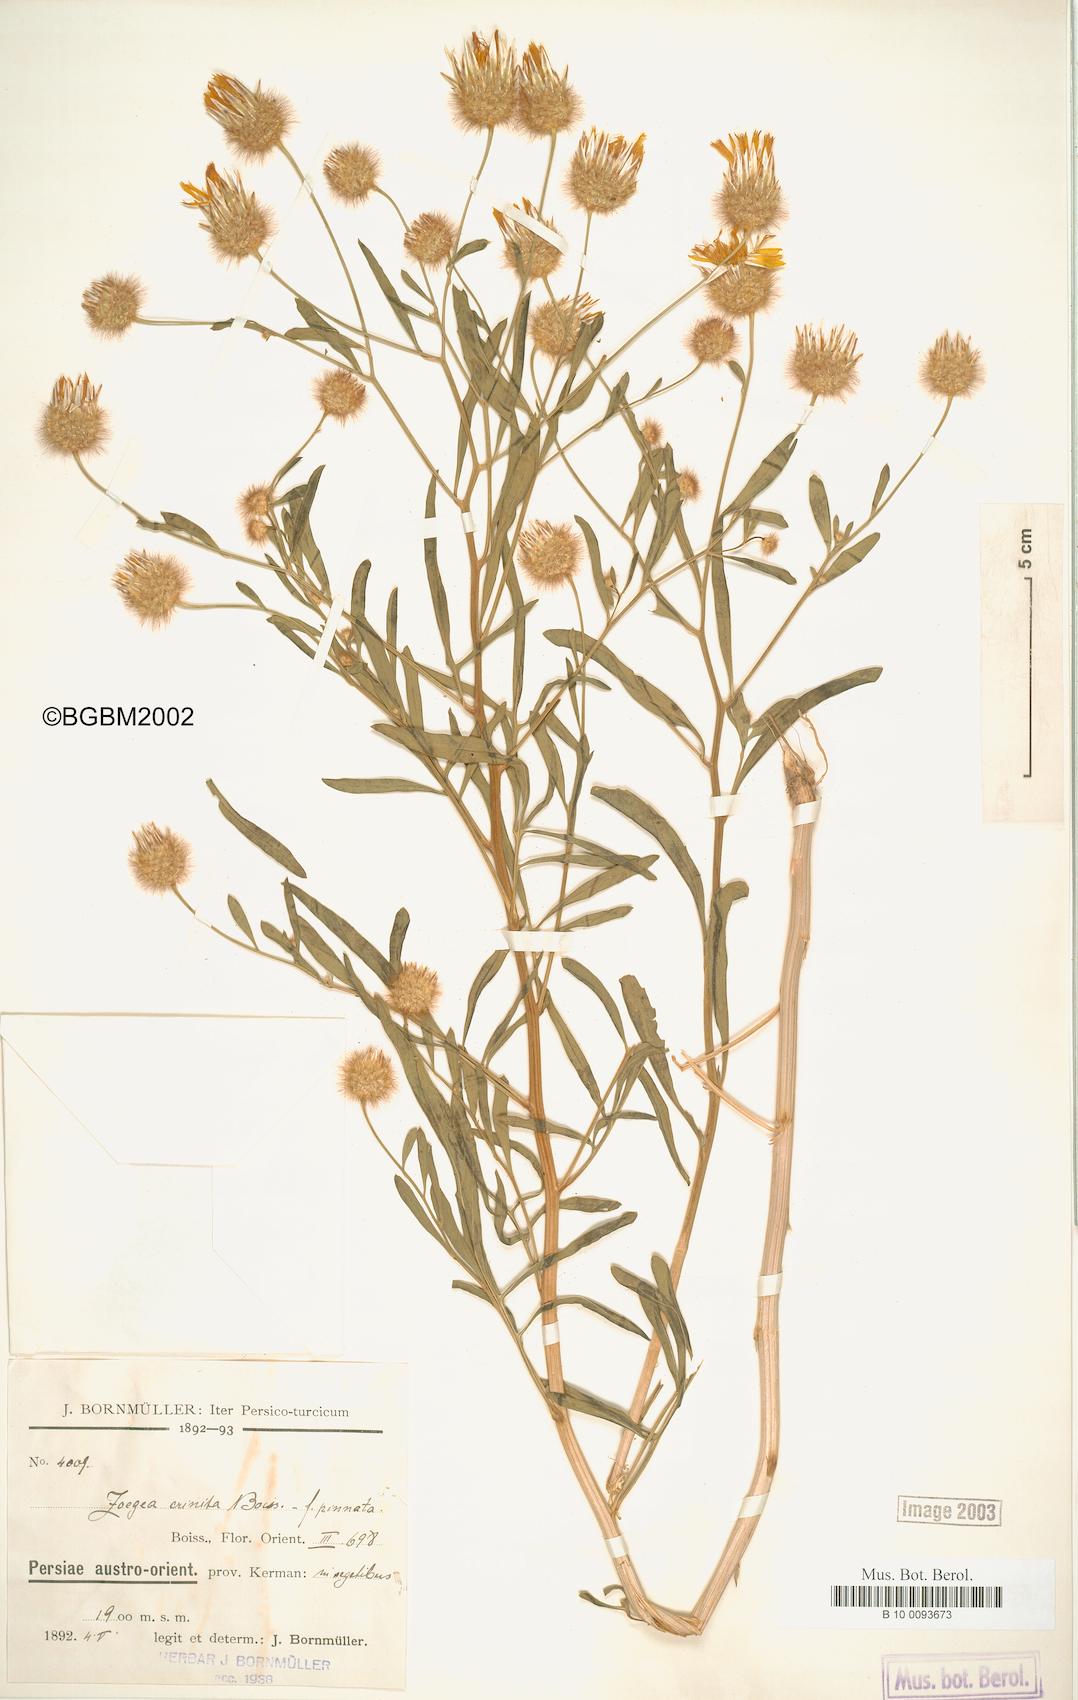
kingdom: Plantae
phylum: Tracheophyta
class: Magnoliopsida
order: Asterales
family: Asteraceae
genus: Zoegea
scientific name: Zoegea crinita
